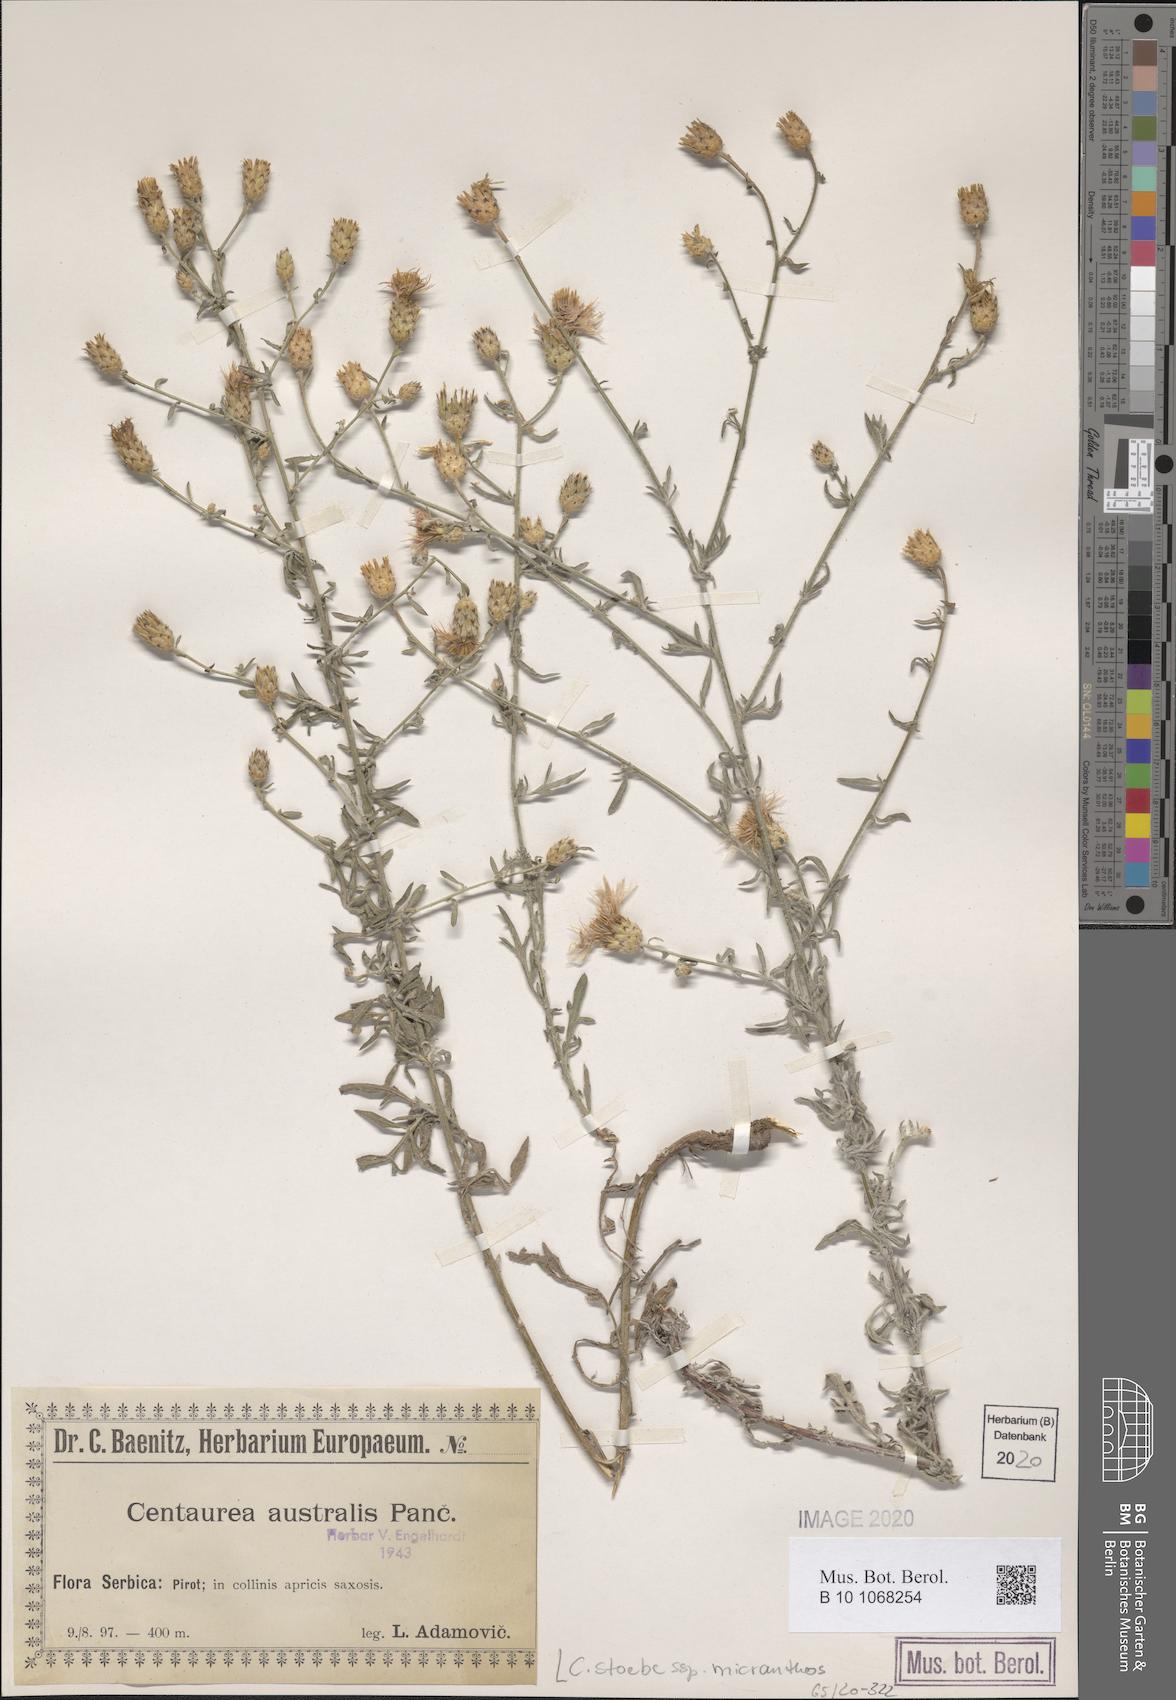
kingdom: Plantae
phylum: Tracheophyta
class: Magnoliopsida
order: Asterales
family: Asteraceae
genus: Centaurea
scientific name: Centaurea australis
